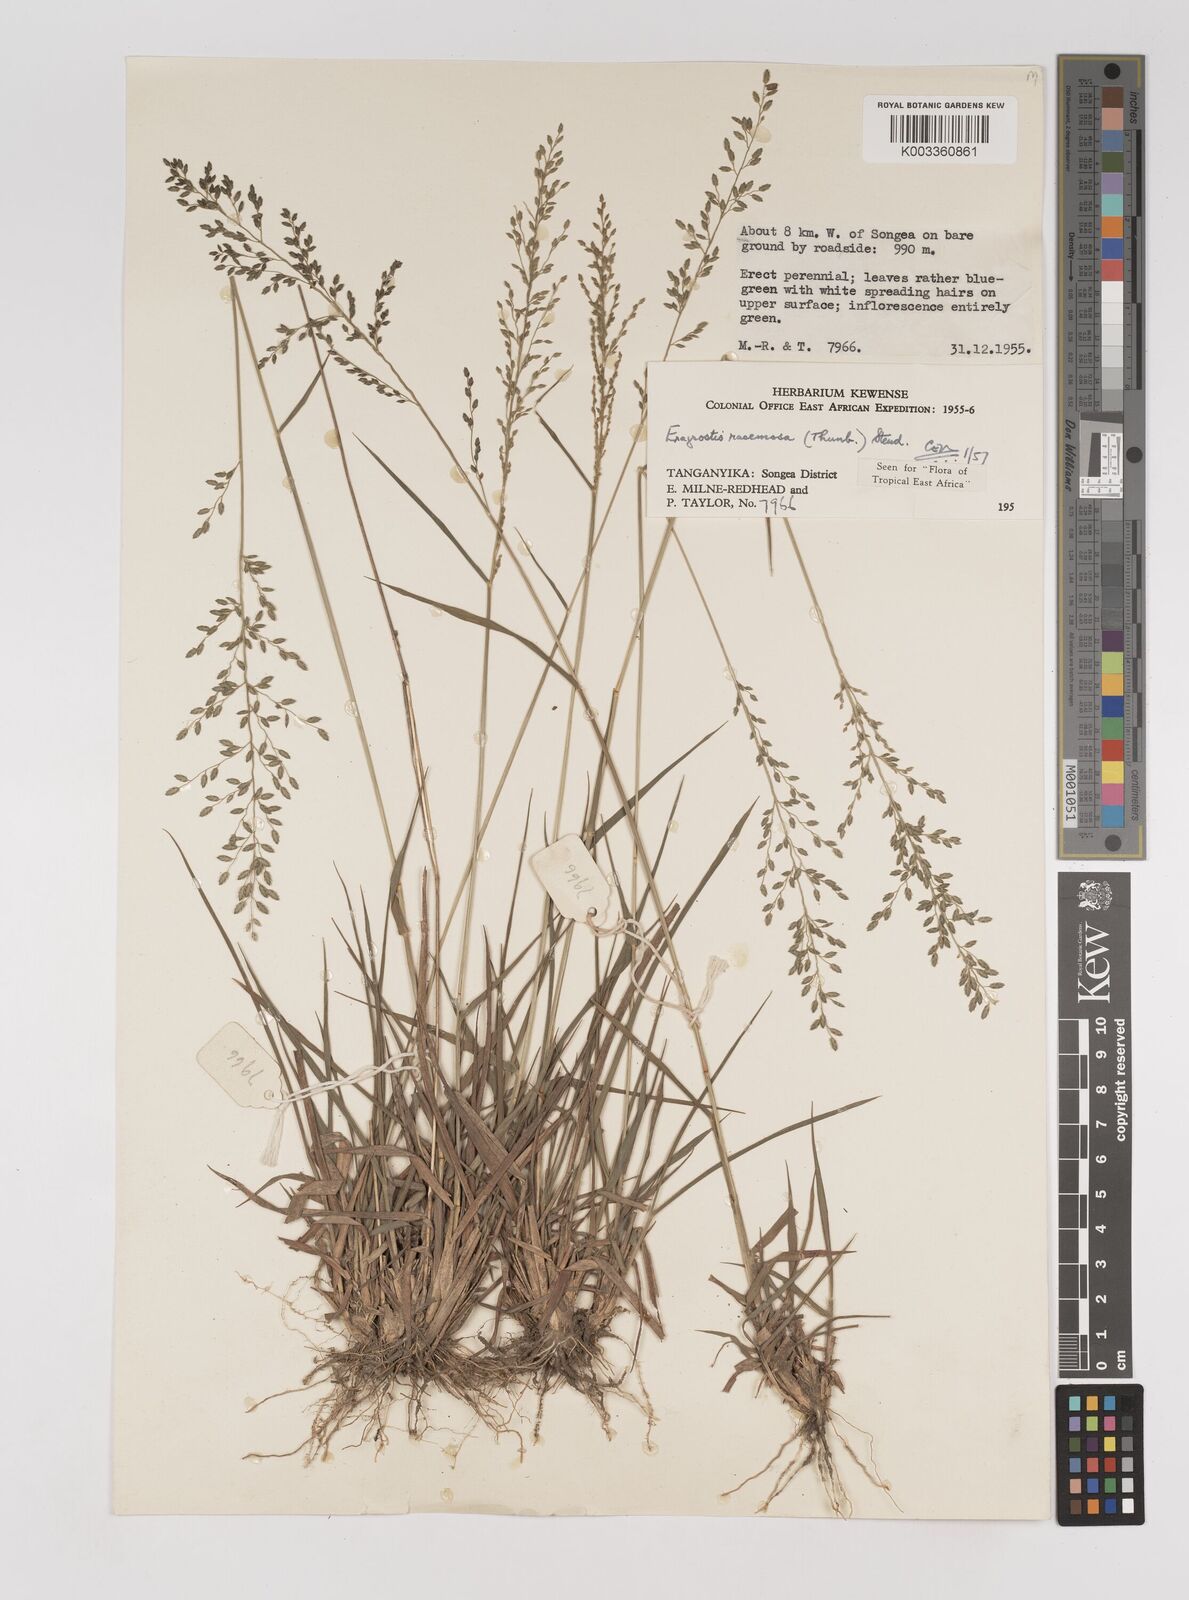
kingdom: Plantae
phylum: Tracheophyta
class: Liliopsida
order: Poales
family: Poaceae
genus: Eragrostis
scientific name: Eragrostis racemosa
